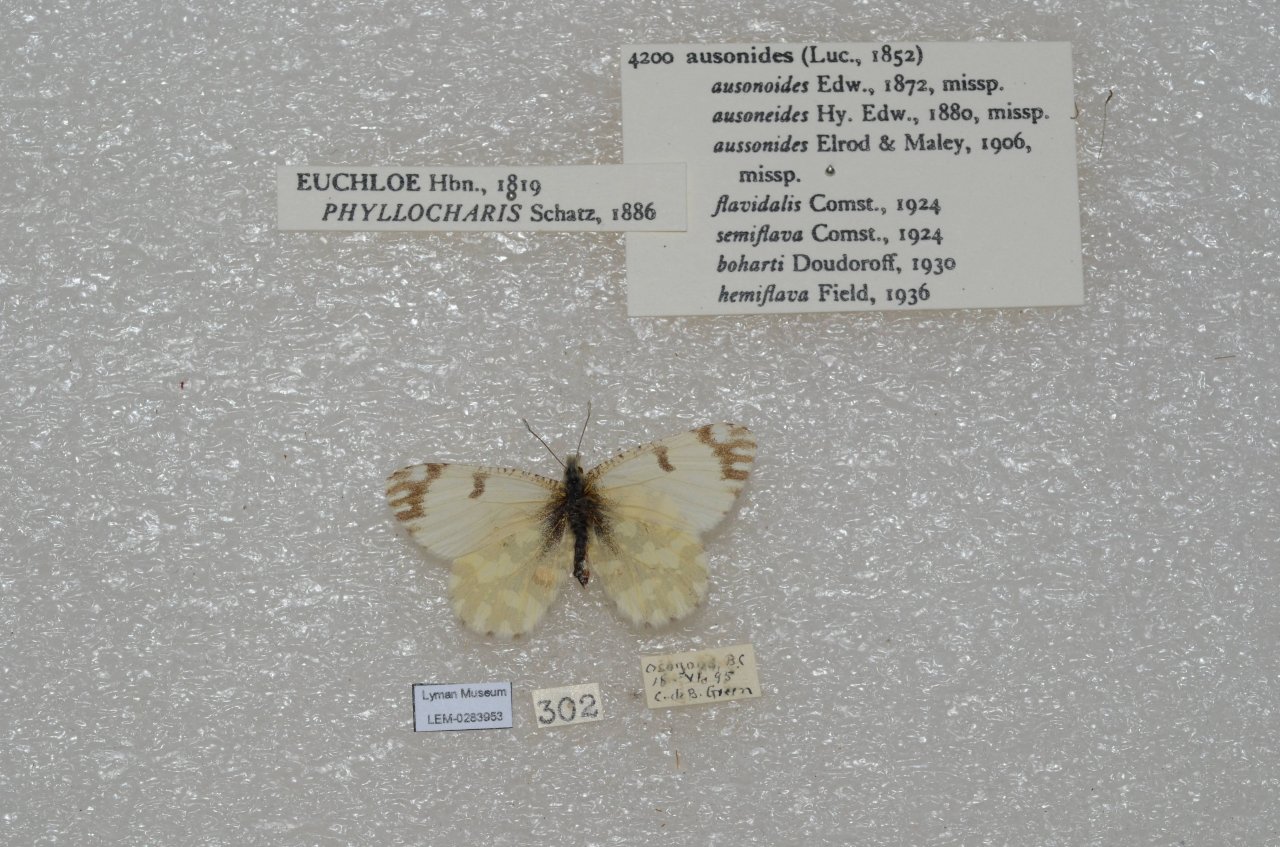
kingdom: Animalia
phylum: Arthropoda
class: Insecta
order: Lepidoptera
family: Pieridae
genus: Euchloe
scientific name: Euchloe ausonides
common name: Large Marble
